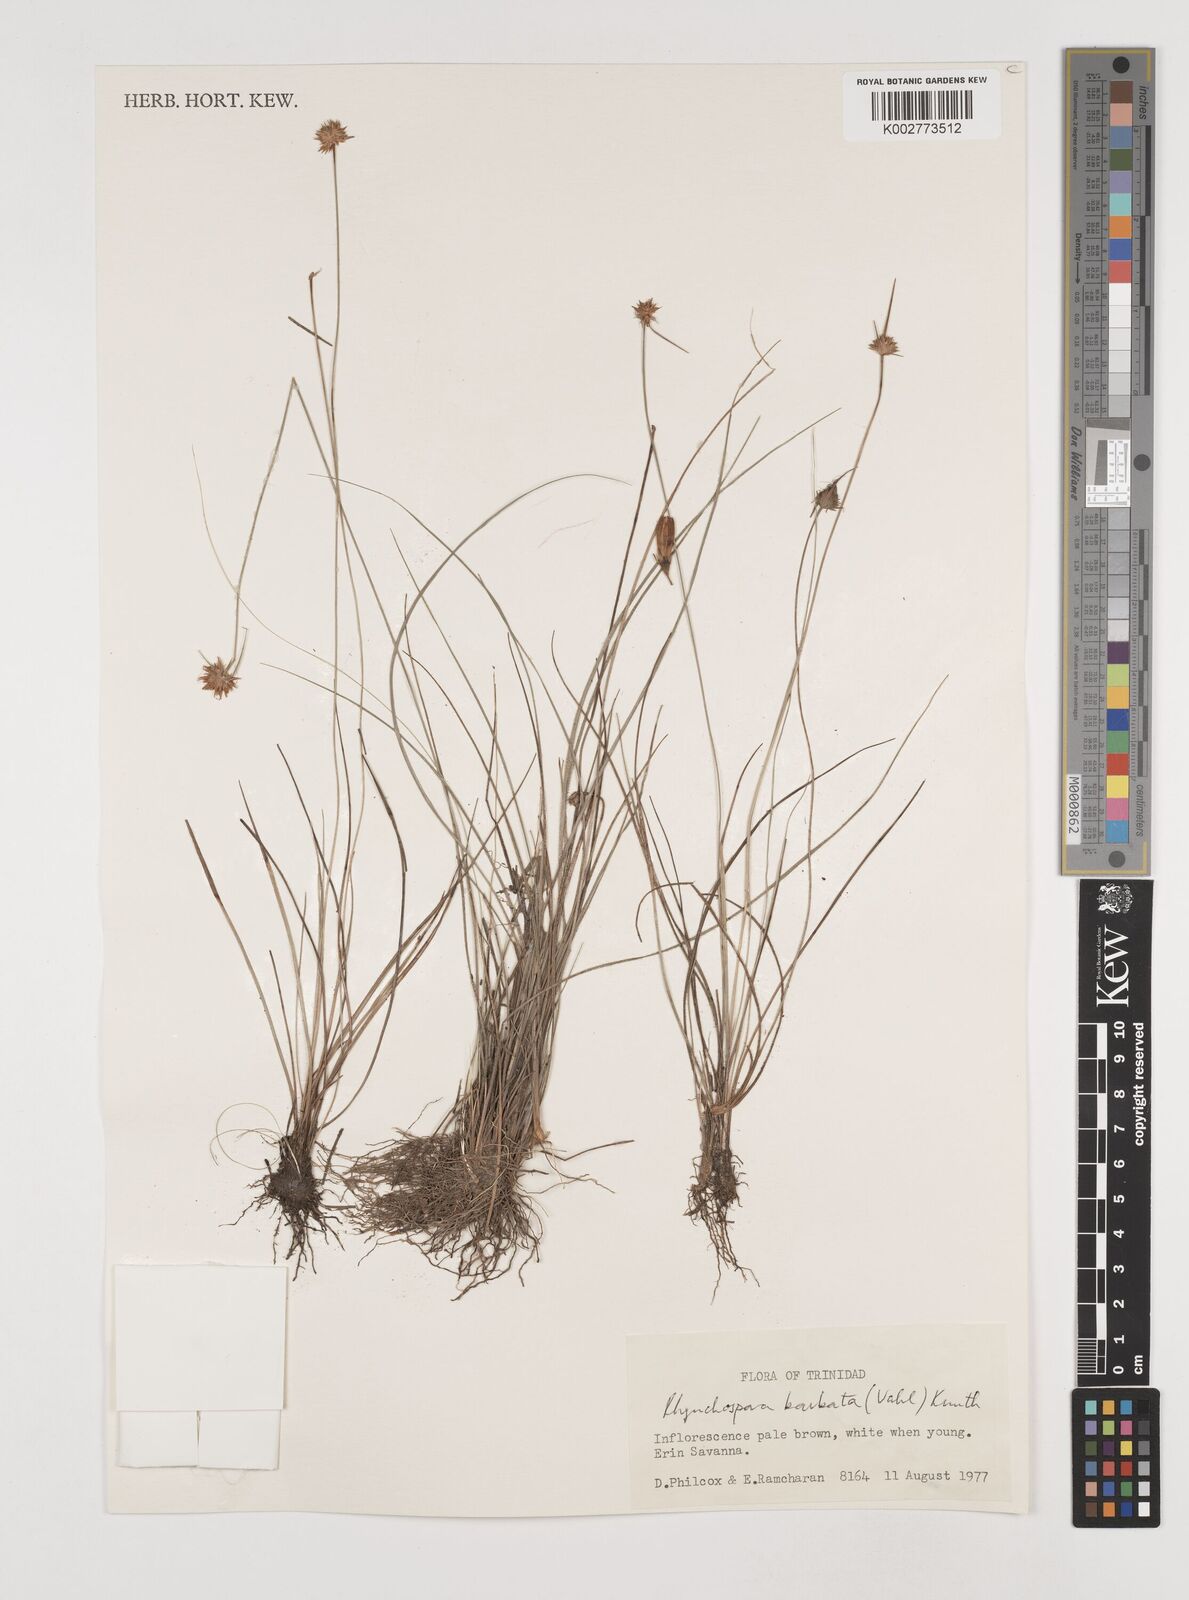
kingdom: Plantae
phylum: Tracheophyta
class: Liliopsida
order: Poales
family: Cyperaceae
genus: Rhynchospora
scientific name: Rhynchospora barbata
